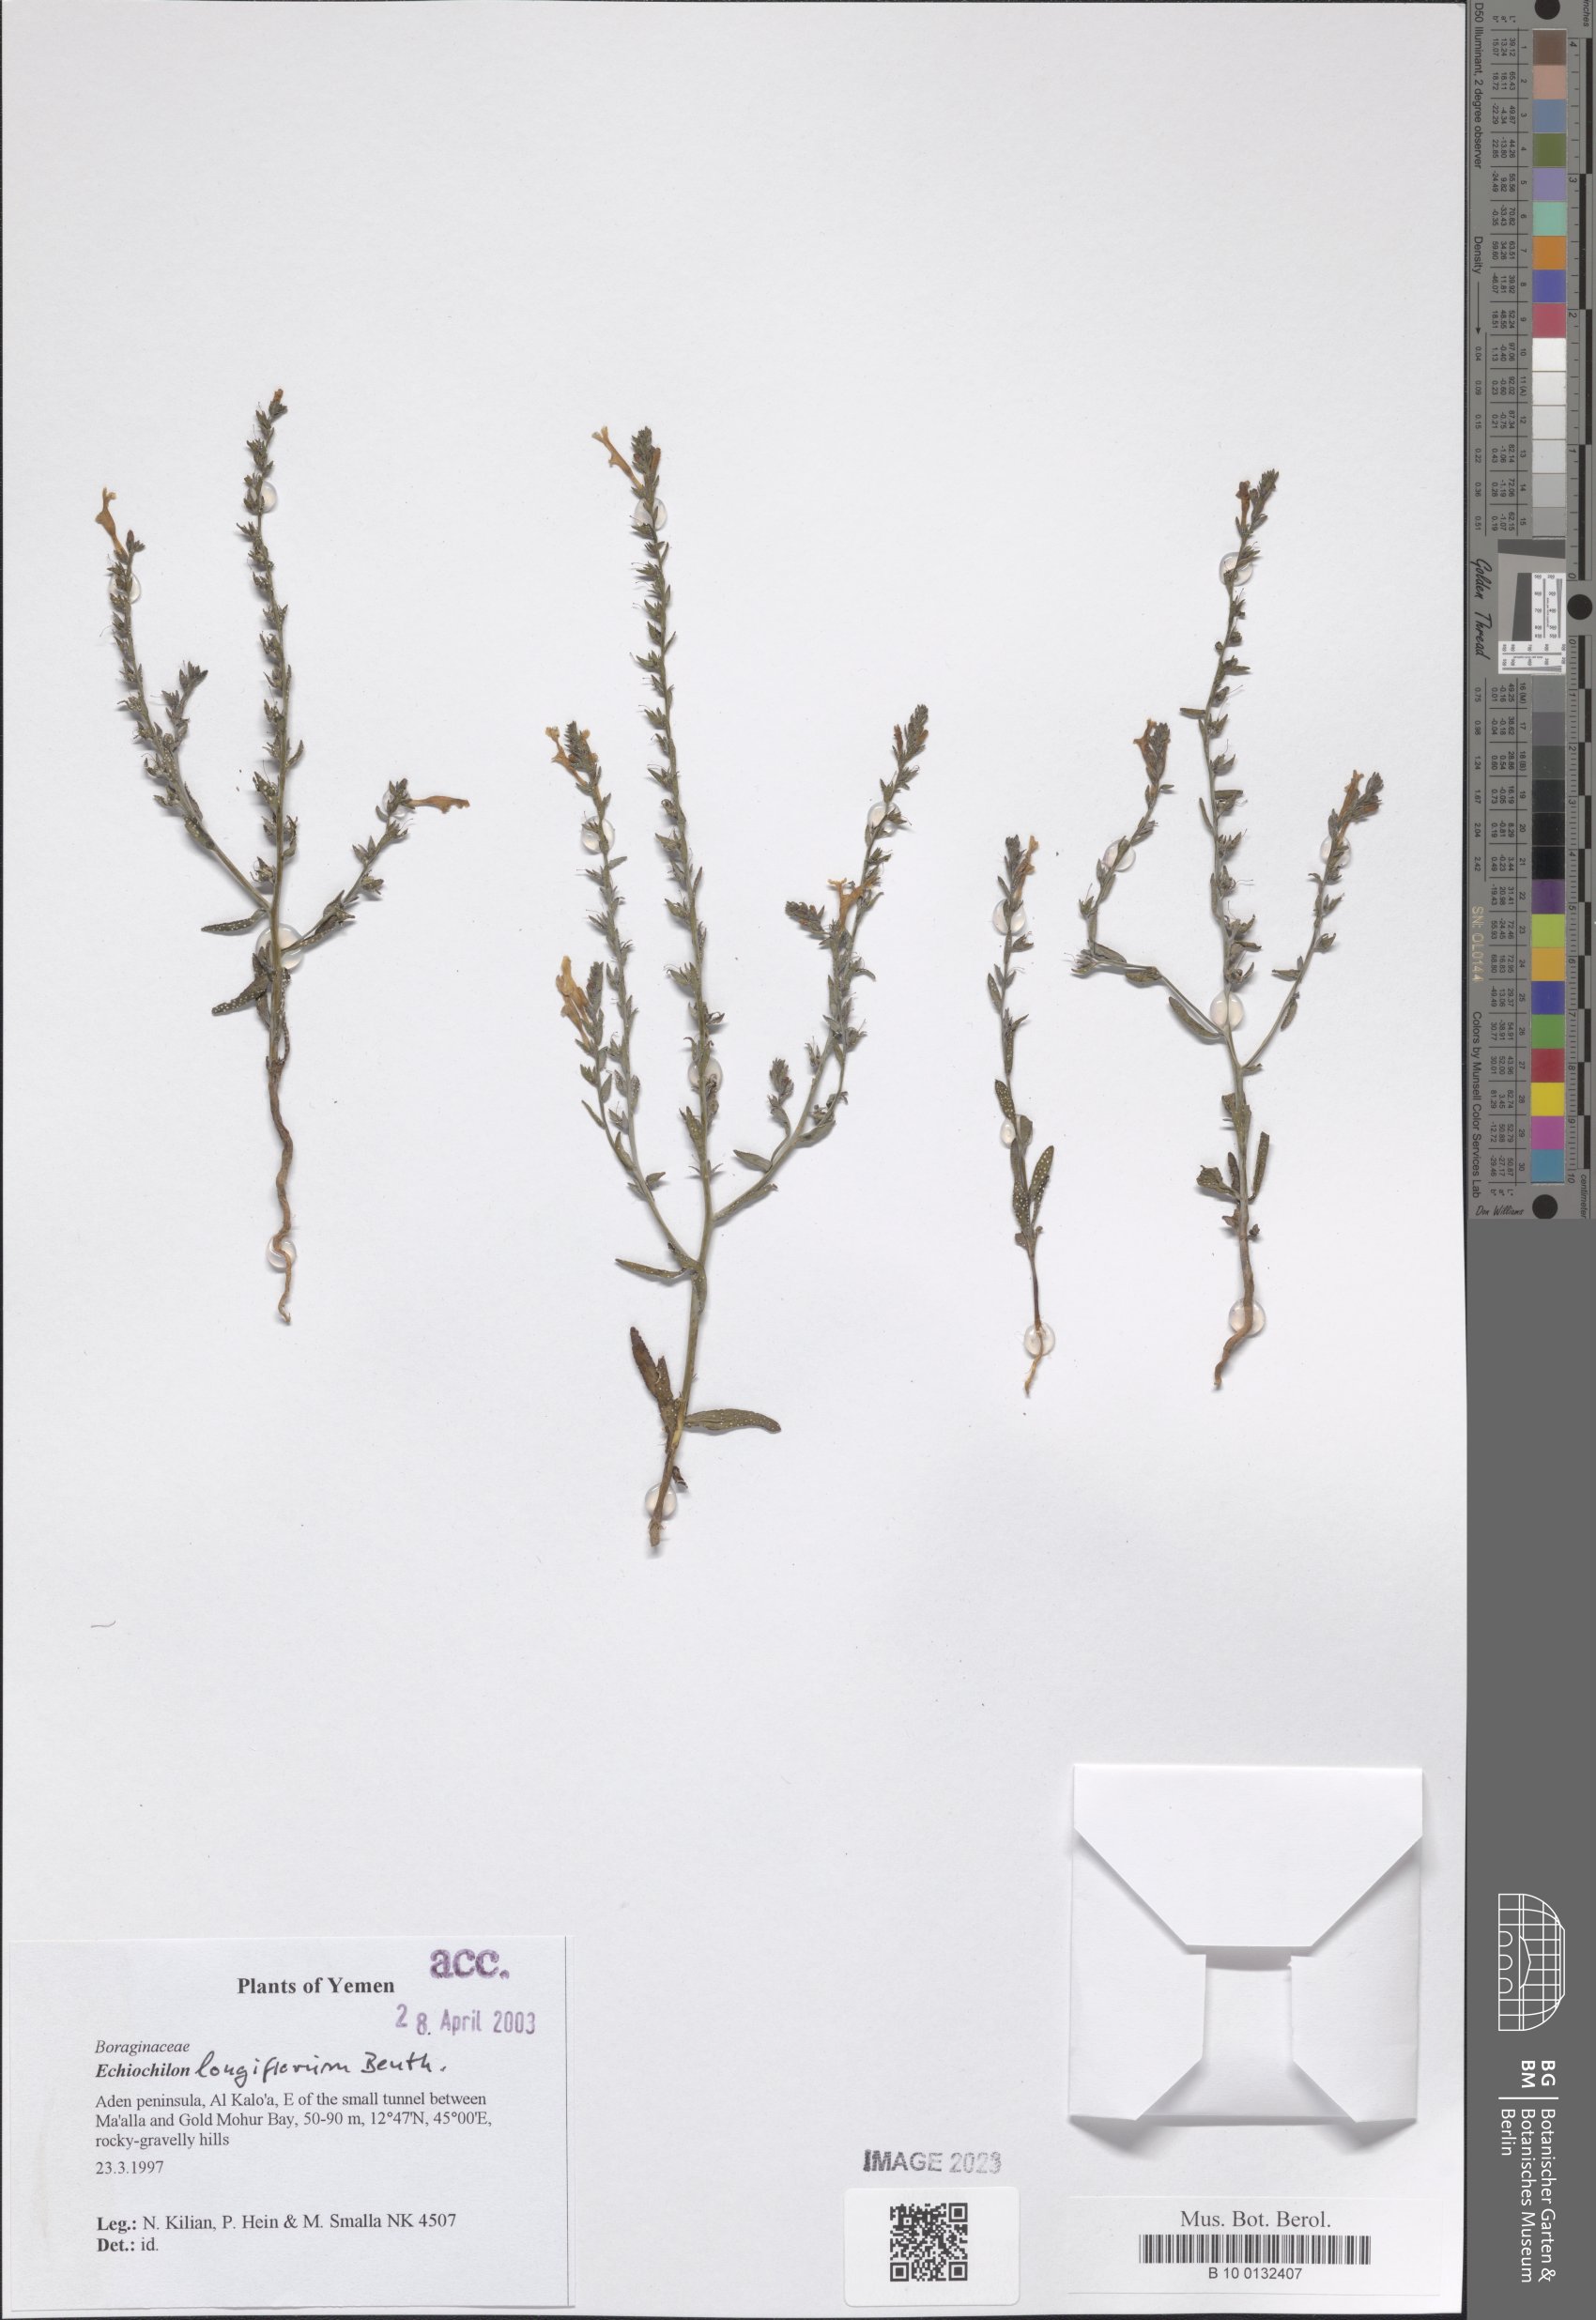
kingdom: Plantae
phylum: Tracheophyta
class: Magnoliopsida
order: Boraginales
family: Boraginaceae
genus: Echiochilon
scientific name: Echiochilon longiflorum
